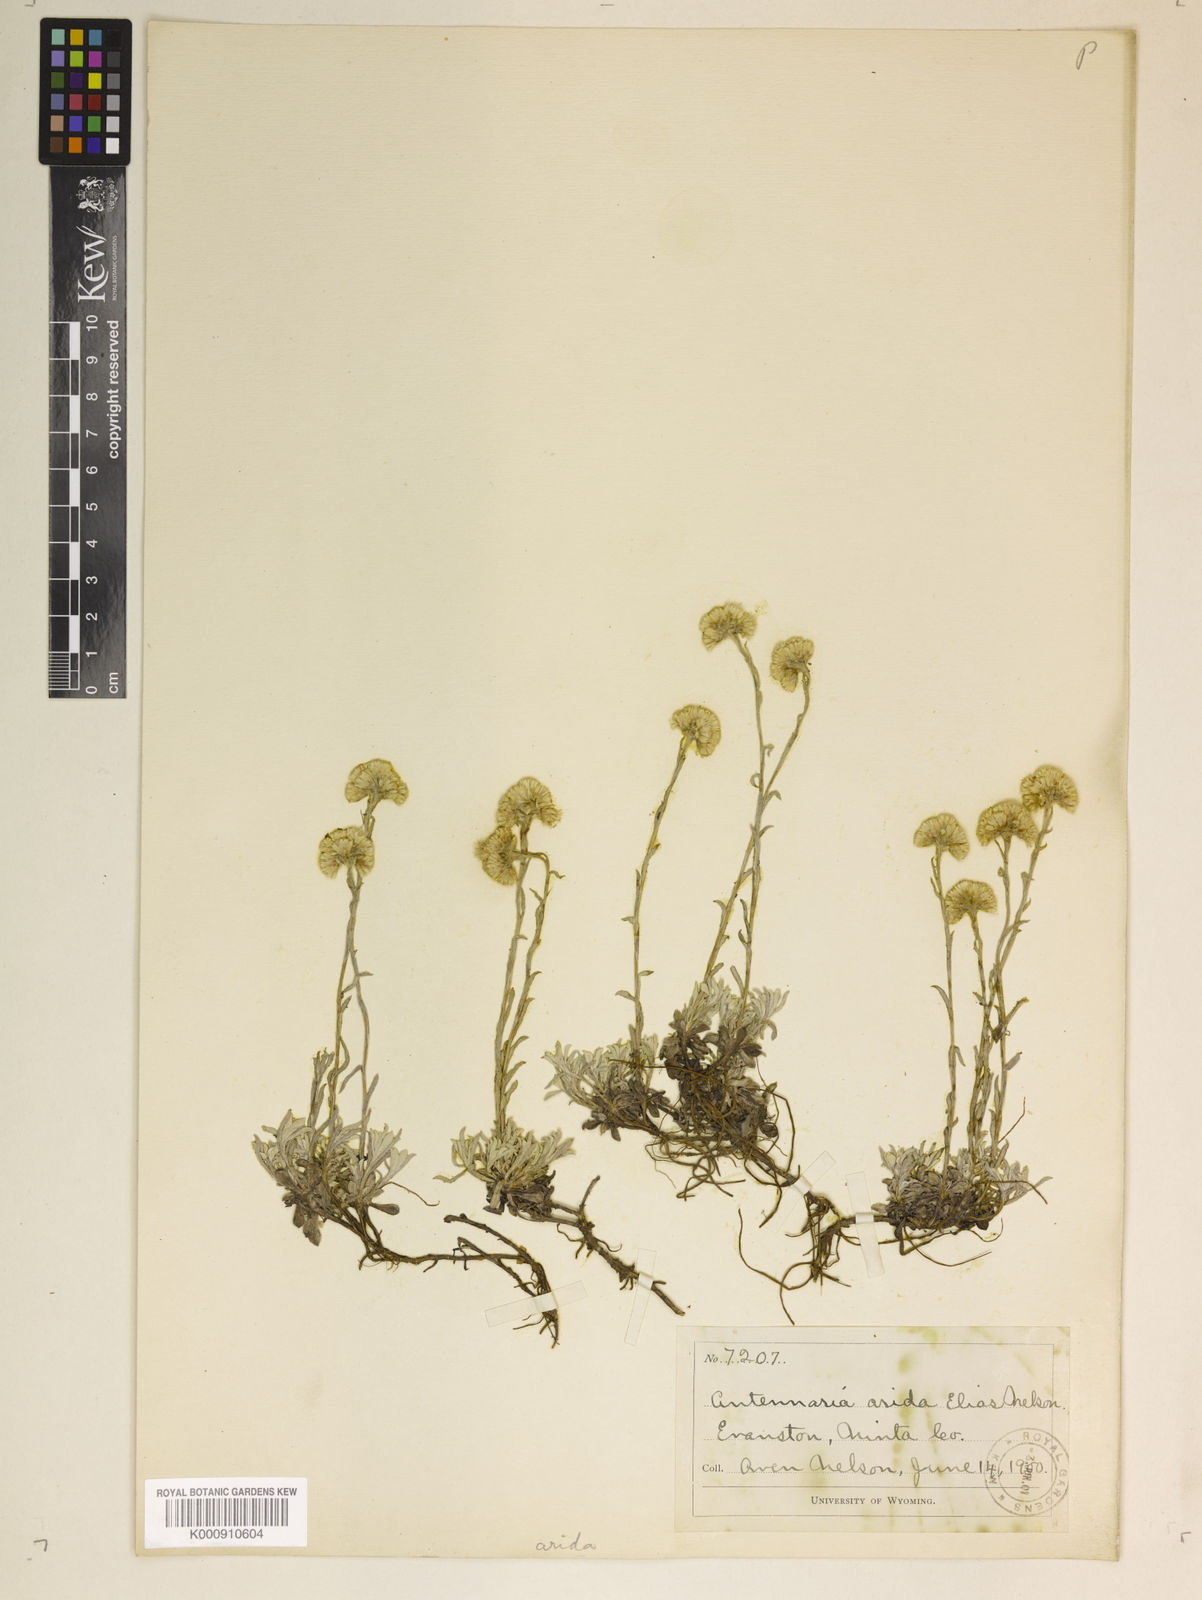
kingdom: Plantae
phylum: Tracheophyta
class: Magnoliopsida
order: Asterales
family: Asteraceae
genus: Antennaria
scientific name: Antennaria rosea
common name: Rosy pussytoes
